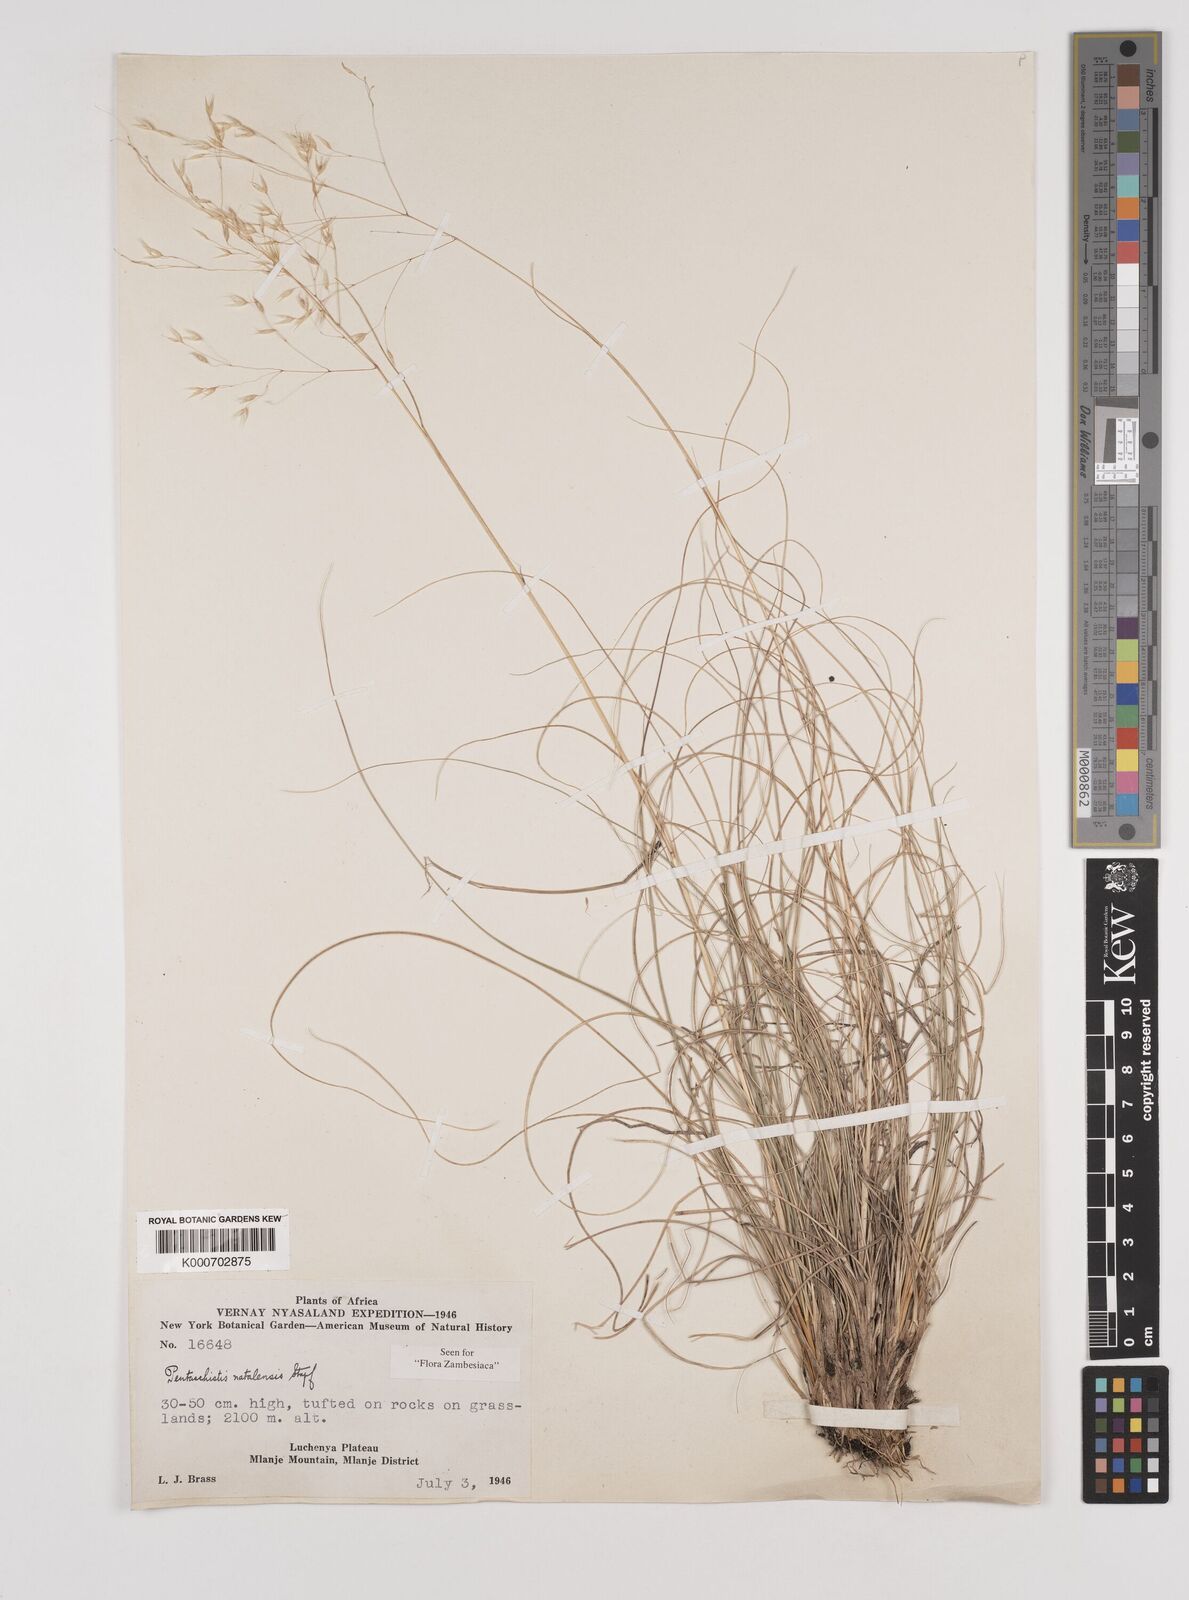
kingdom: Plantae
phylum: Tracheophyta
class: Liliopsida
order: Poales
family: Poaceae
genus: Pentameris
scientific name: Pentameris natalensis
